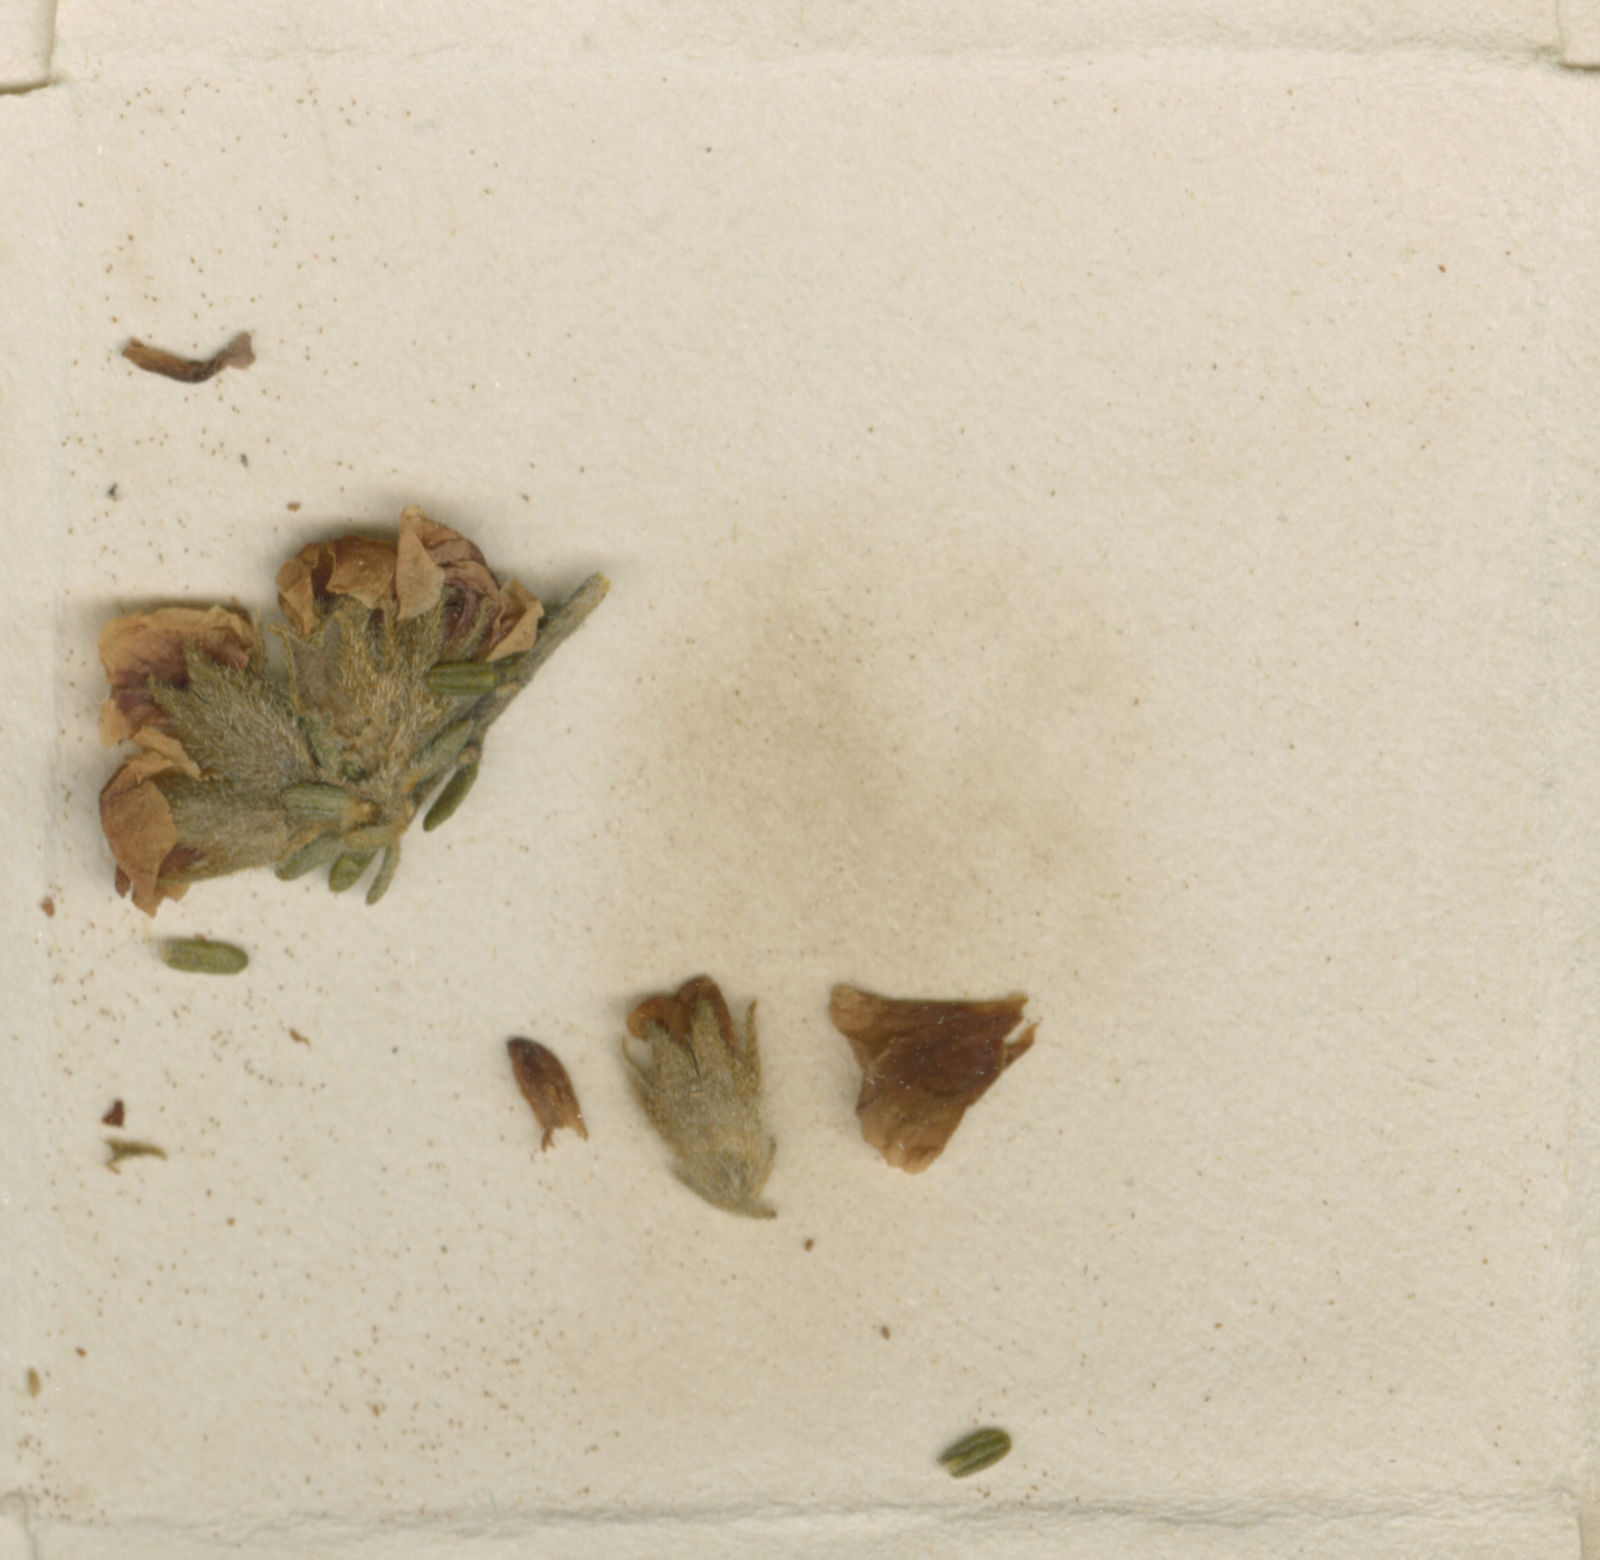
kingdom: Plantae
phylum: Tracheophyta
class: Magnoliopsida
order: Fabales
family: Fabaceae
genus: Mirbelia
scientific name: Mirbelia trichocalyx
